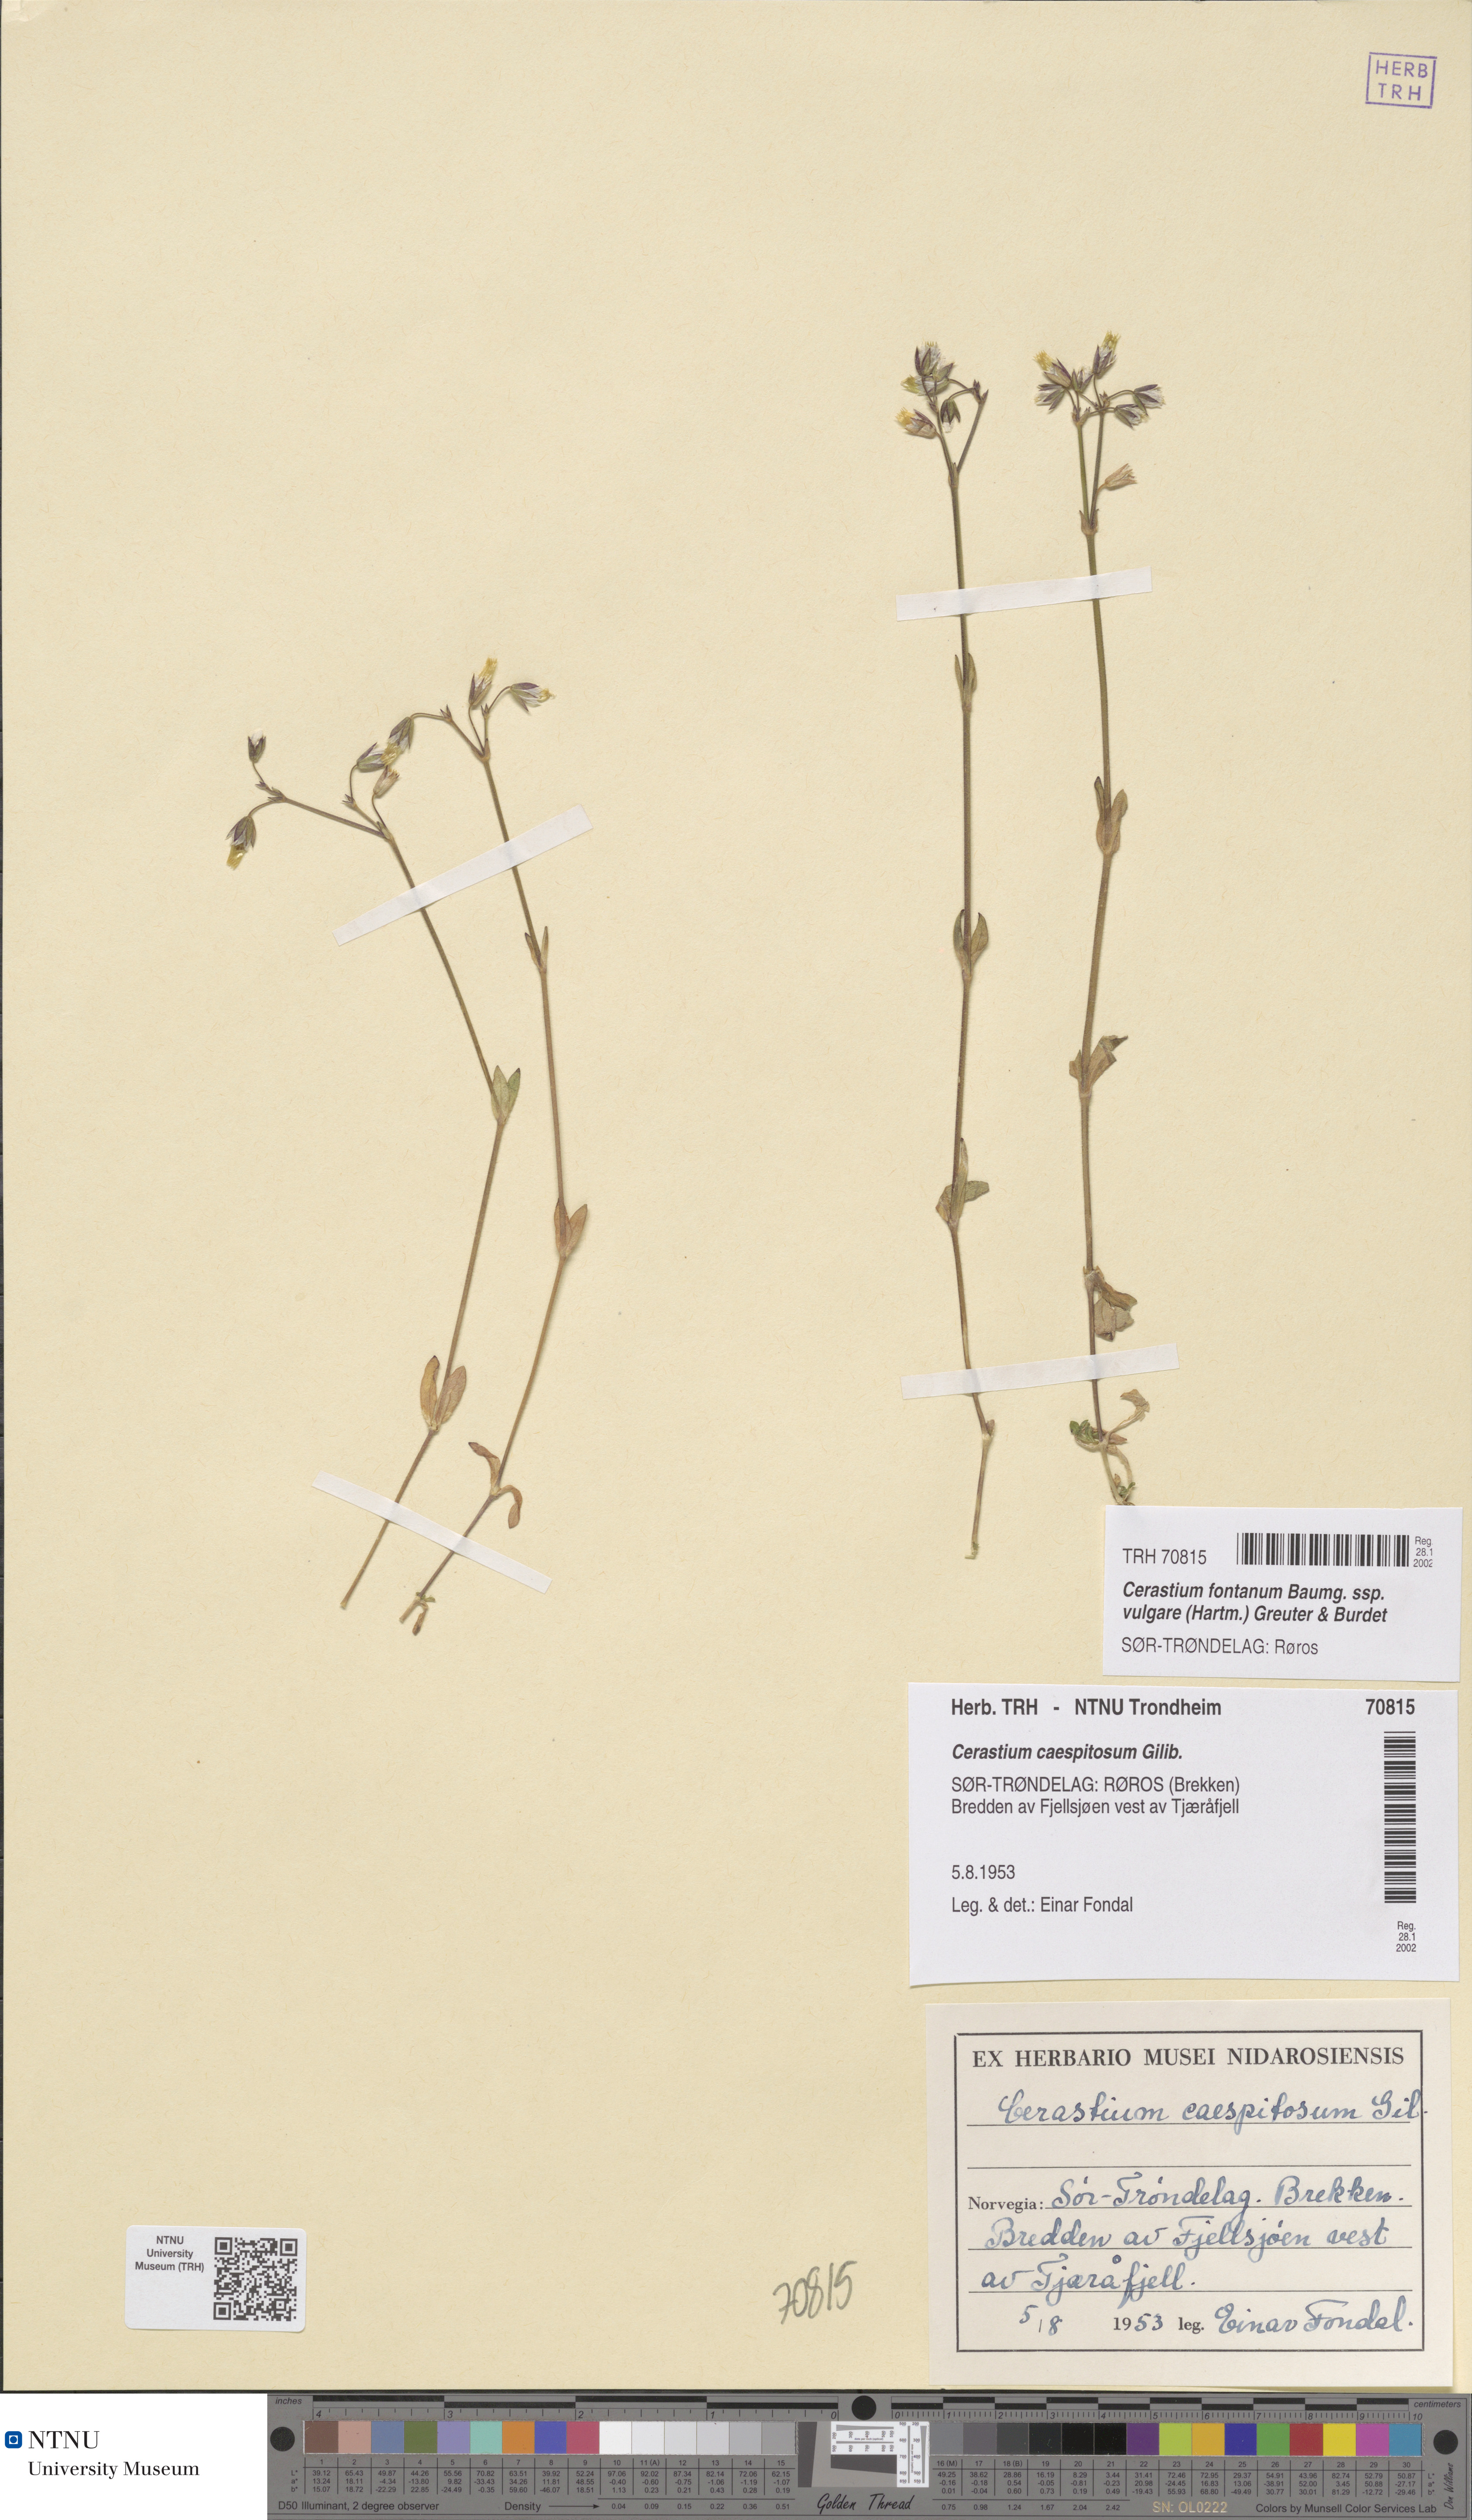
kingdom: Plantae
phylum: Tracheophyta
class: Magnoliopsida
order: Caryophyllales
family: Caryophyllaceae
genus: Cerastium
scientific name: Cerastium holosteoides
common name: Big chickweed
